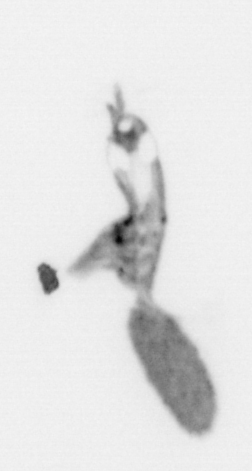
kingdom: Animalia
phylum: Arthropoda
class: Copepoda
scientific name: Copepoda
